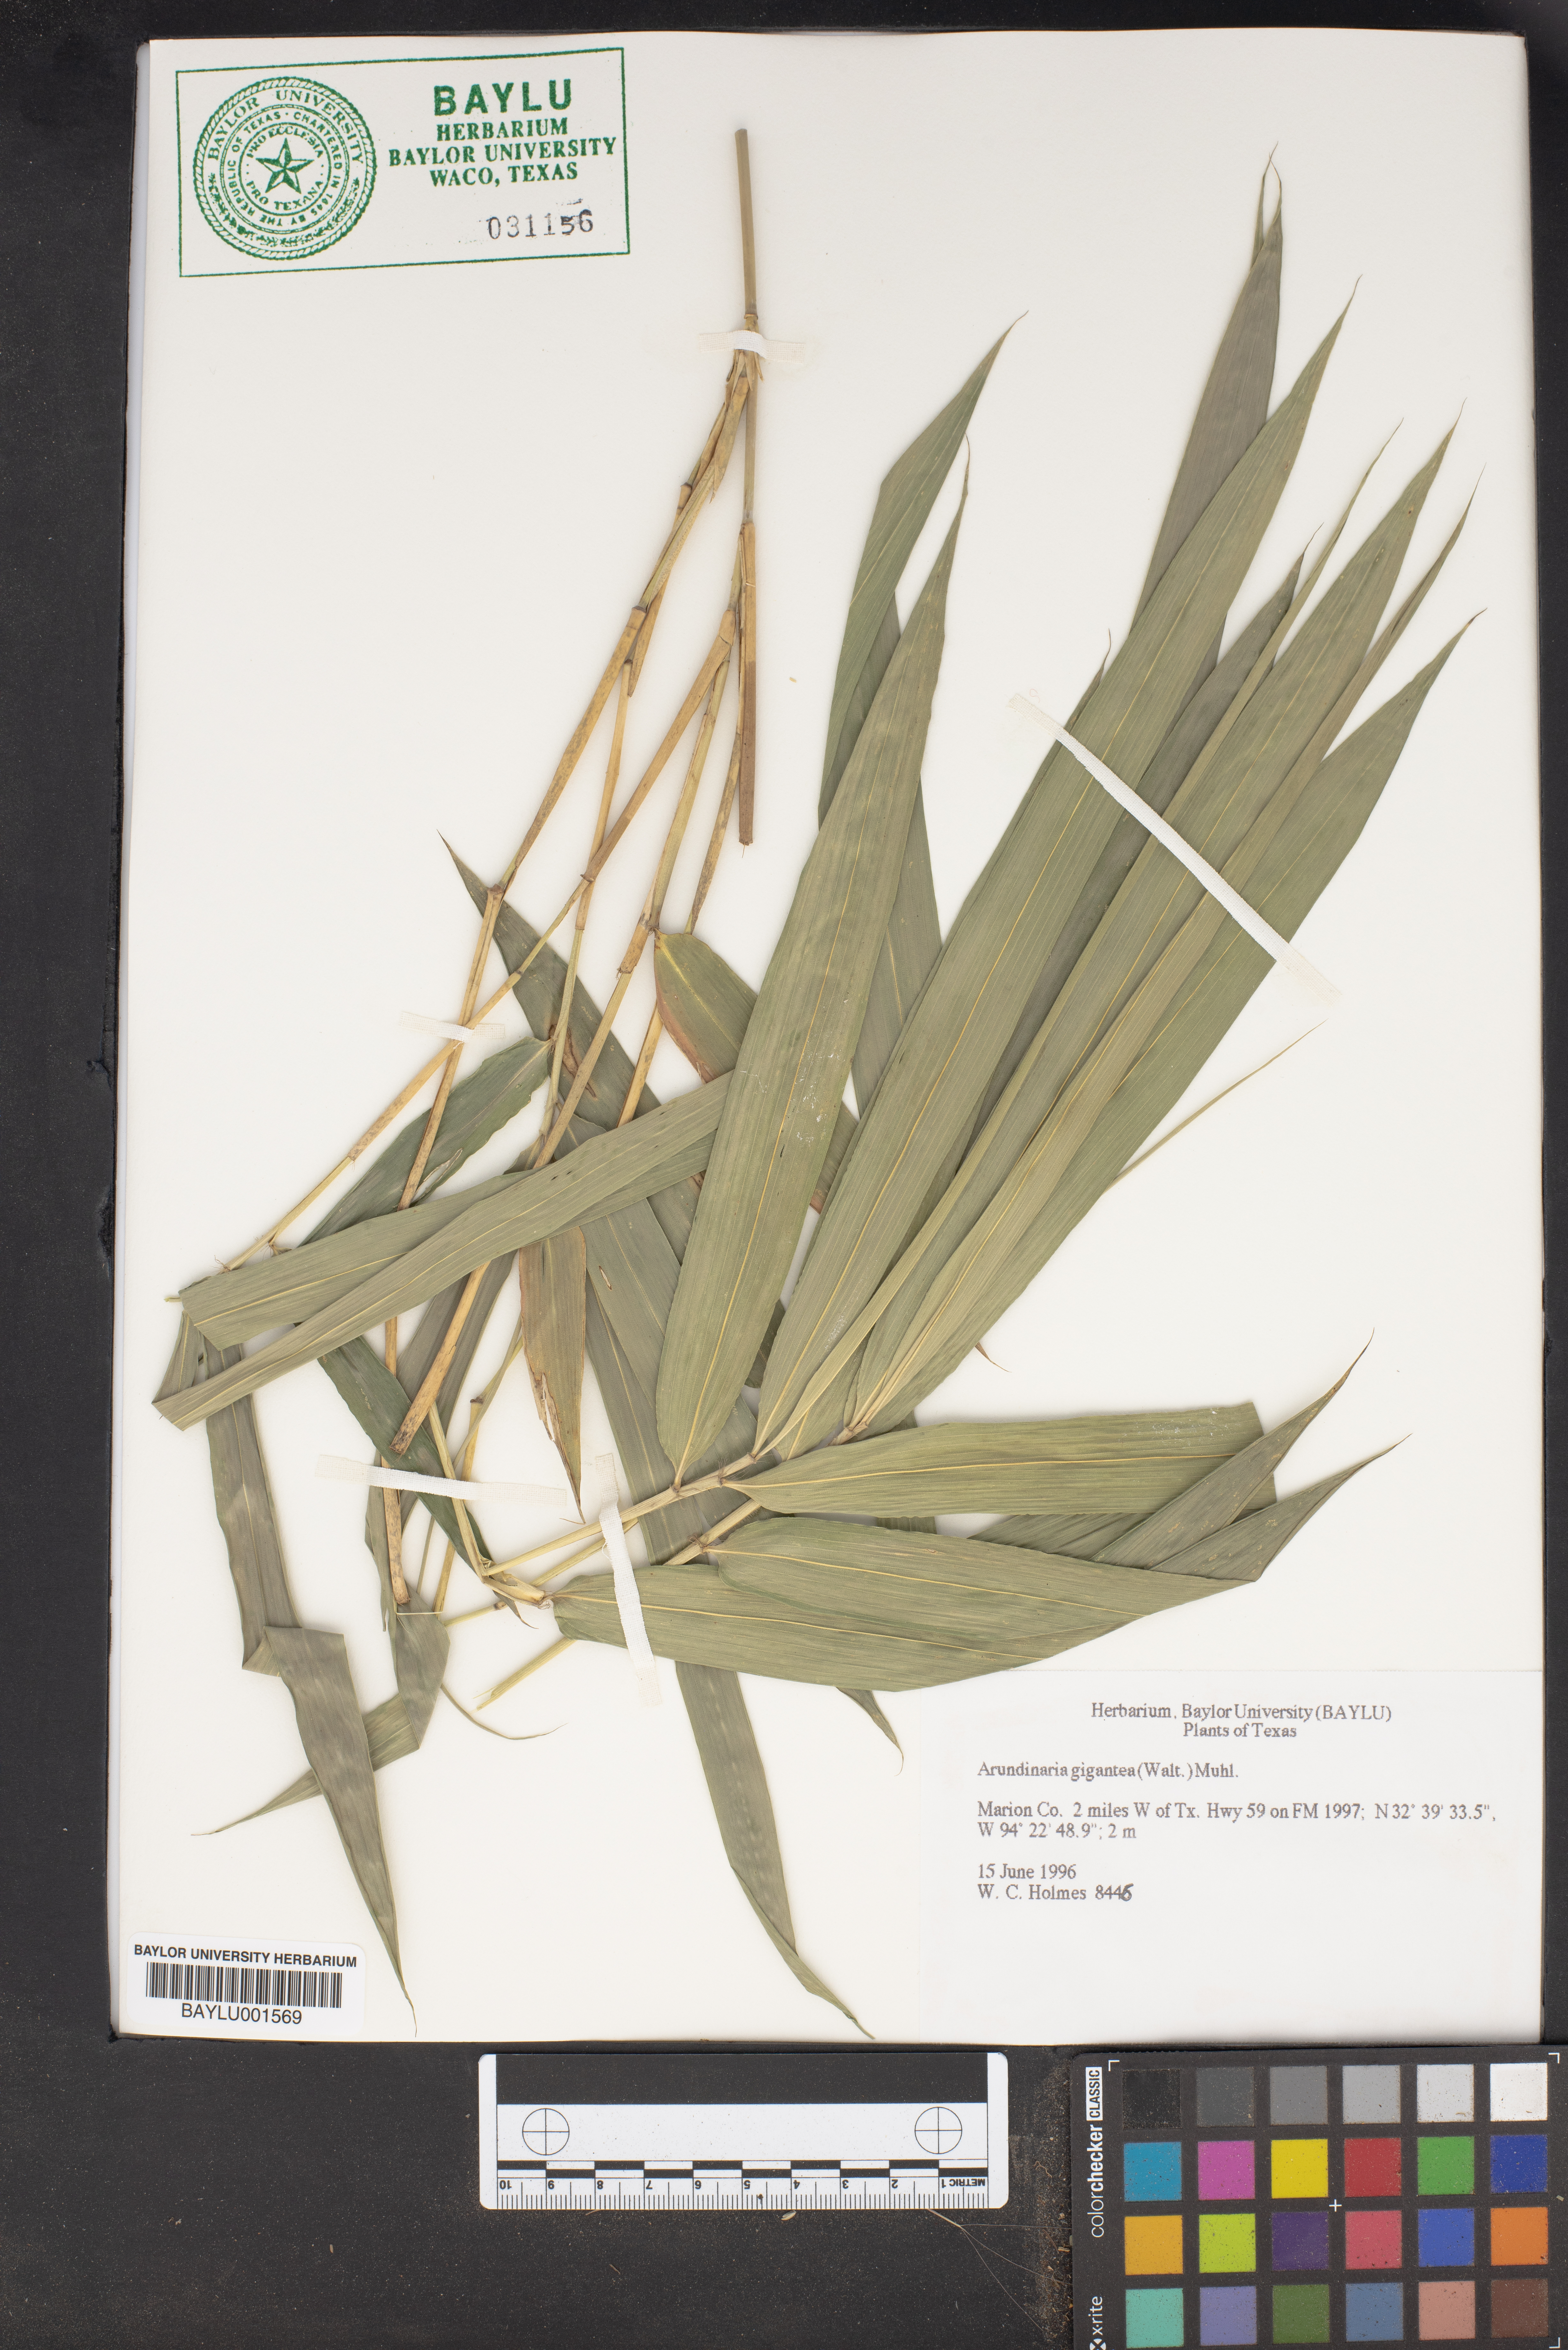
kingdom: Plantae
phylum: Tracheophyta
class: Liliopsida
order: Poales
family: Poaceae
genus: Arundinaria
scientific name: Arundinaria gigantea
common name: Giant cane
